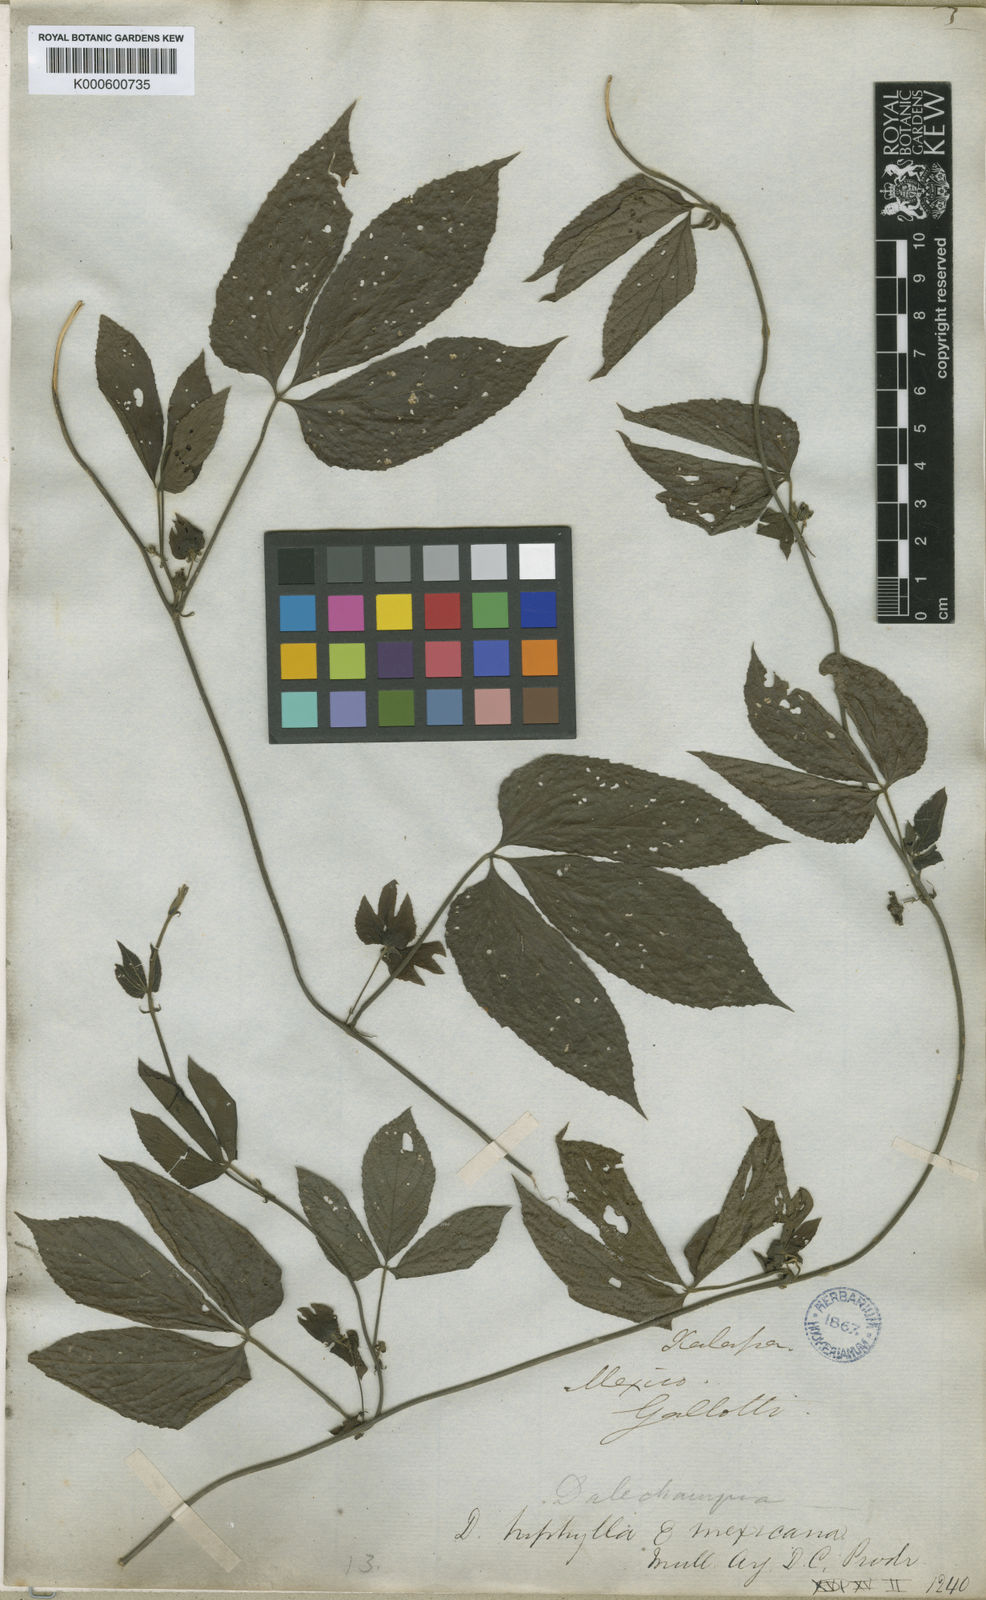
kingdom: Plantae
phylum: Tracheophyta
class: Magnoliopsida
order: Malpighiales
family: Euphorbiaceae
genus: Dalechampia
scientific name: Dalechampia triphylla
